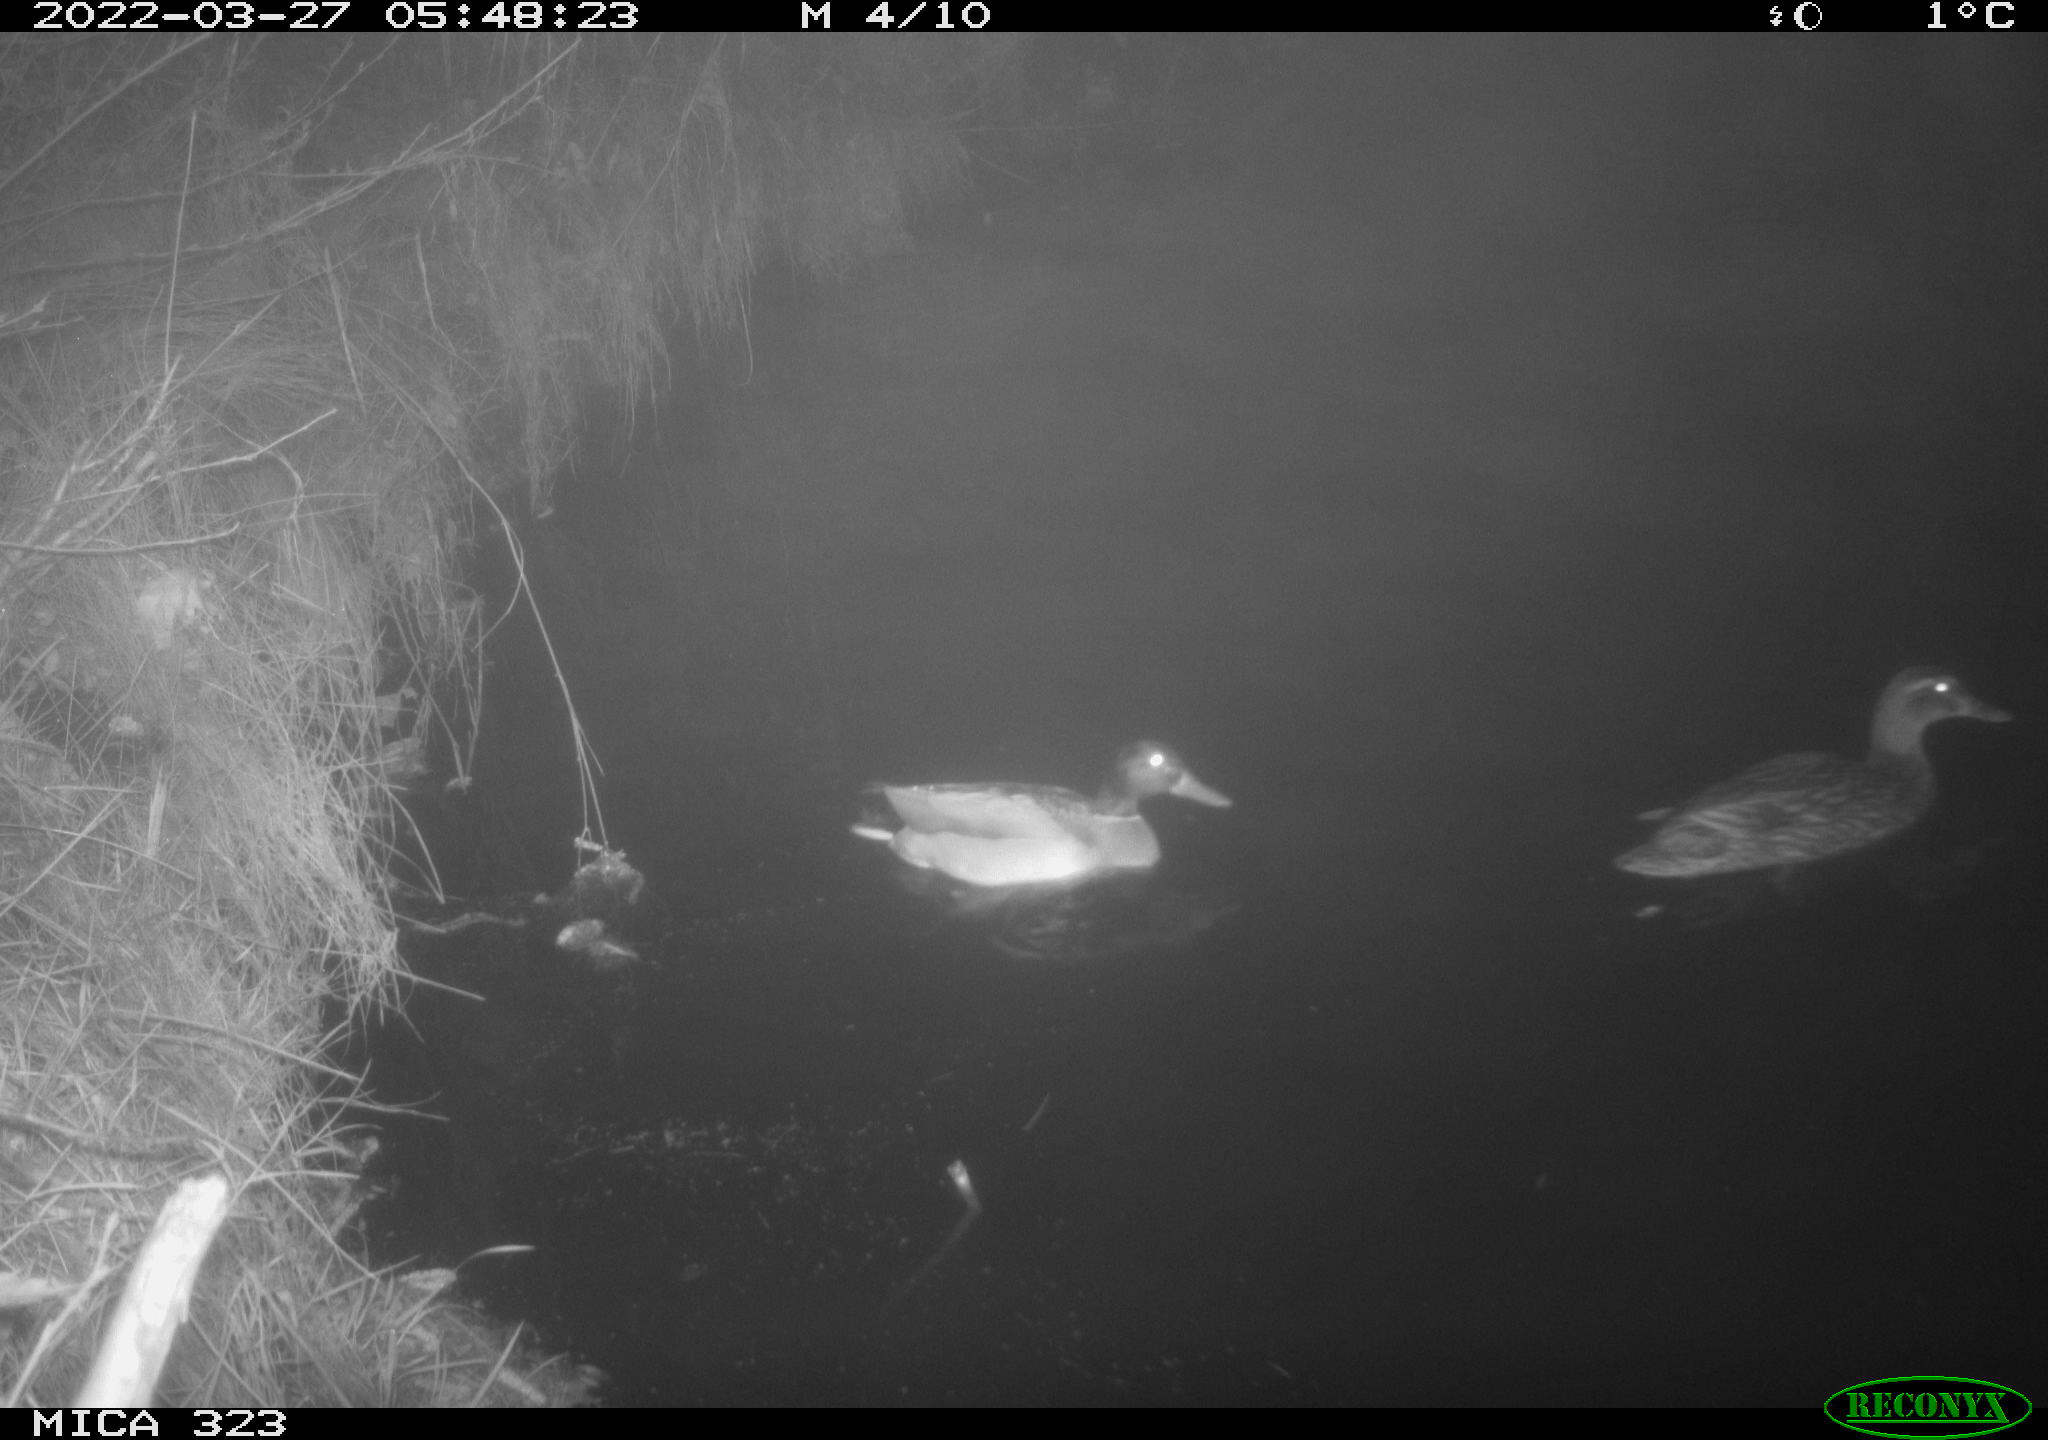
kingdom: Animalia
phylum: Chordata
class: Aves
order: Anseriformes
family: Anatidae
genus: Anas
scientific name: Anas platyrhynchos
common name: Mallard
